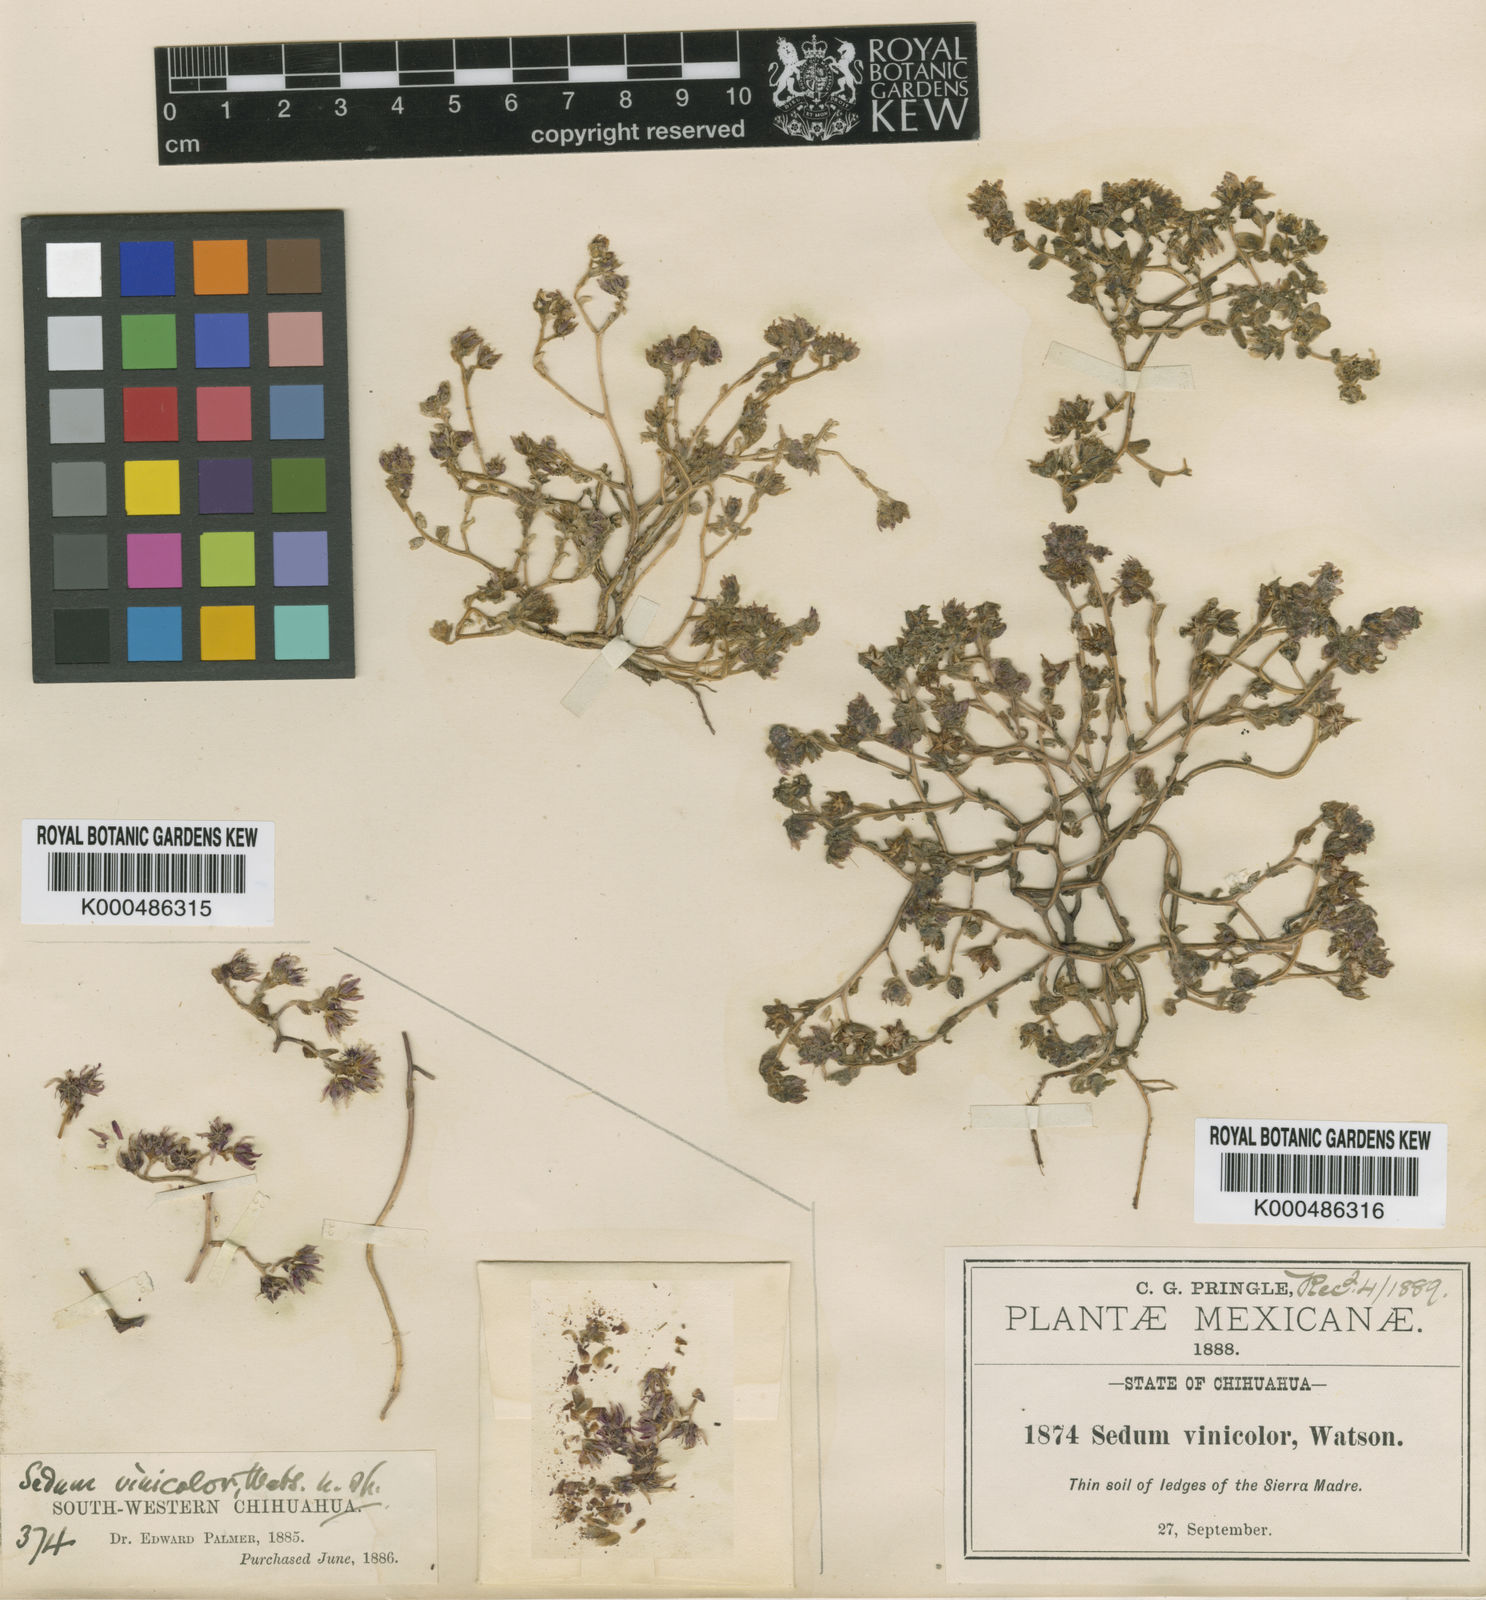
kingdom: Plantae
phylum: Tracheophyta
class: Magnoliopsida
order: Saxifragales
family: Crassulaceae
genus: Sedum
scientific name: Sedum vinicolor
